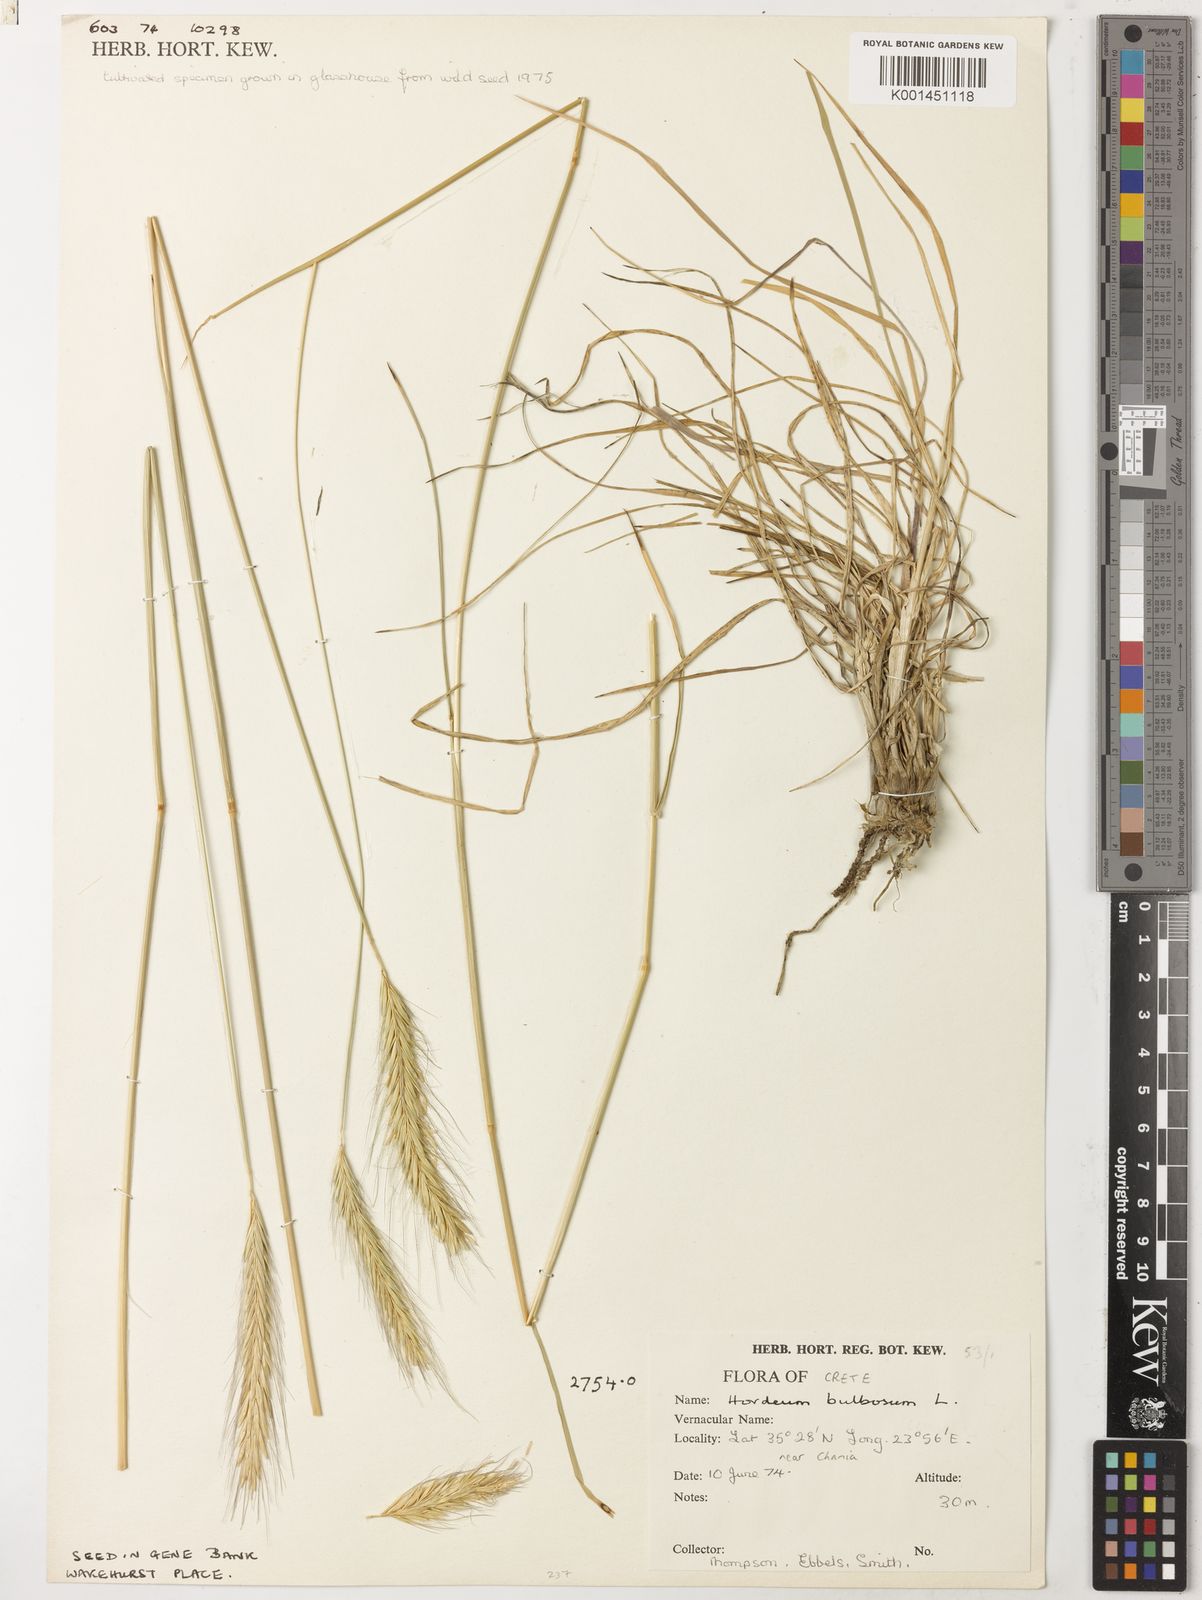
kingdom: Plantae
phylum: Tracheophyta
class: Liliopsida
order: Poales
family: Poaceae
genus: Hordeum
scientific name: Hordeum bulbosum
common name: Bulbous barley
